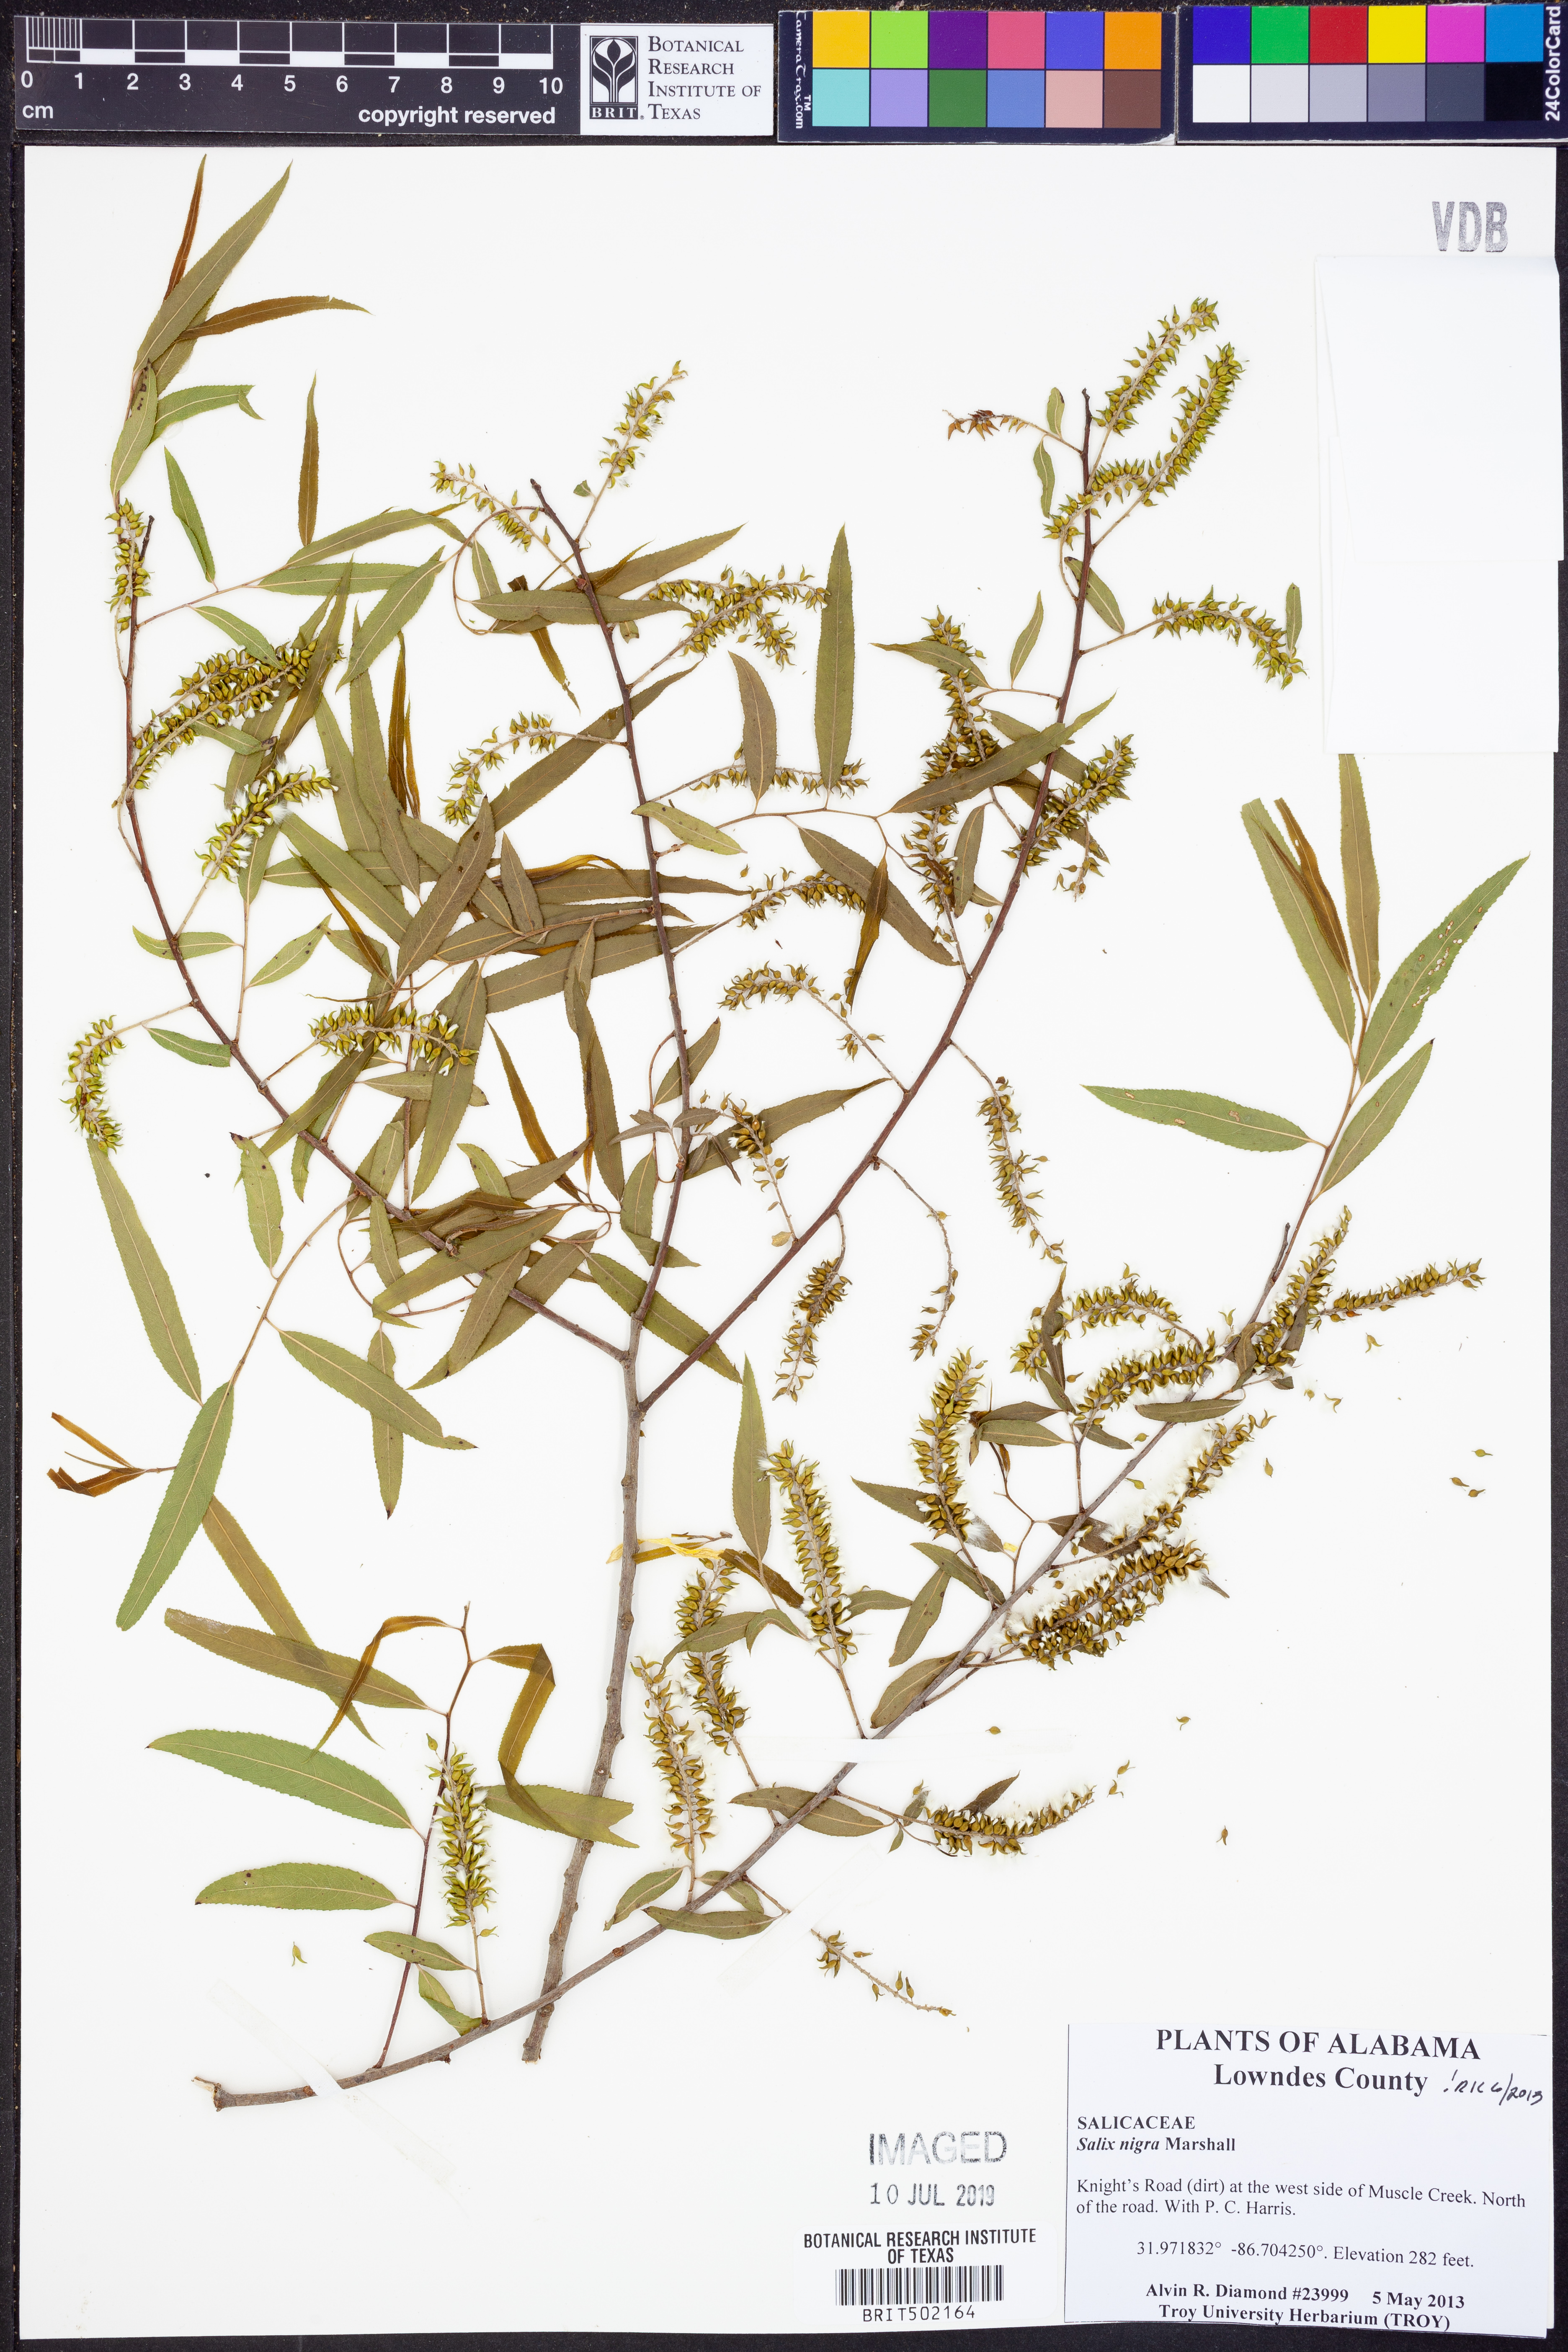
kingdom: Plantae
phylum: Tracheophyta
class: Magnoliopsida
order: Malpighiales
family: Salicaceae
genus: Salix
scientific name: Salix nigra
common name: Black willow
